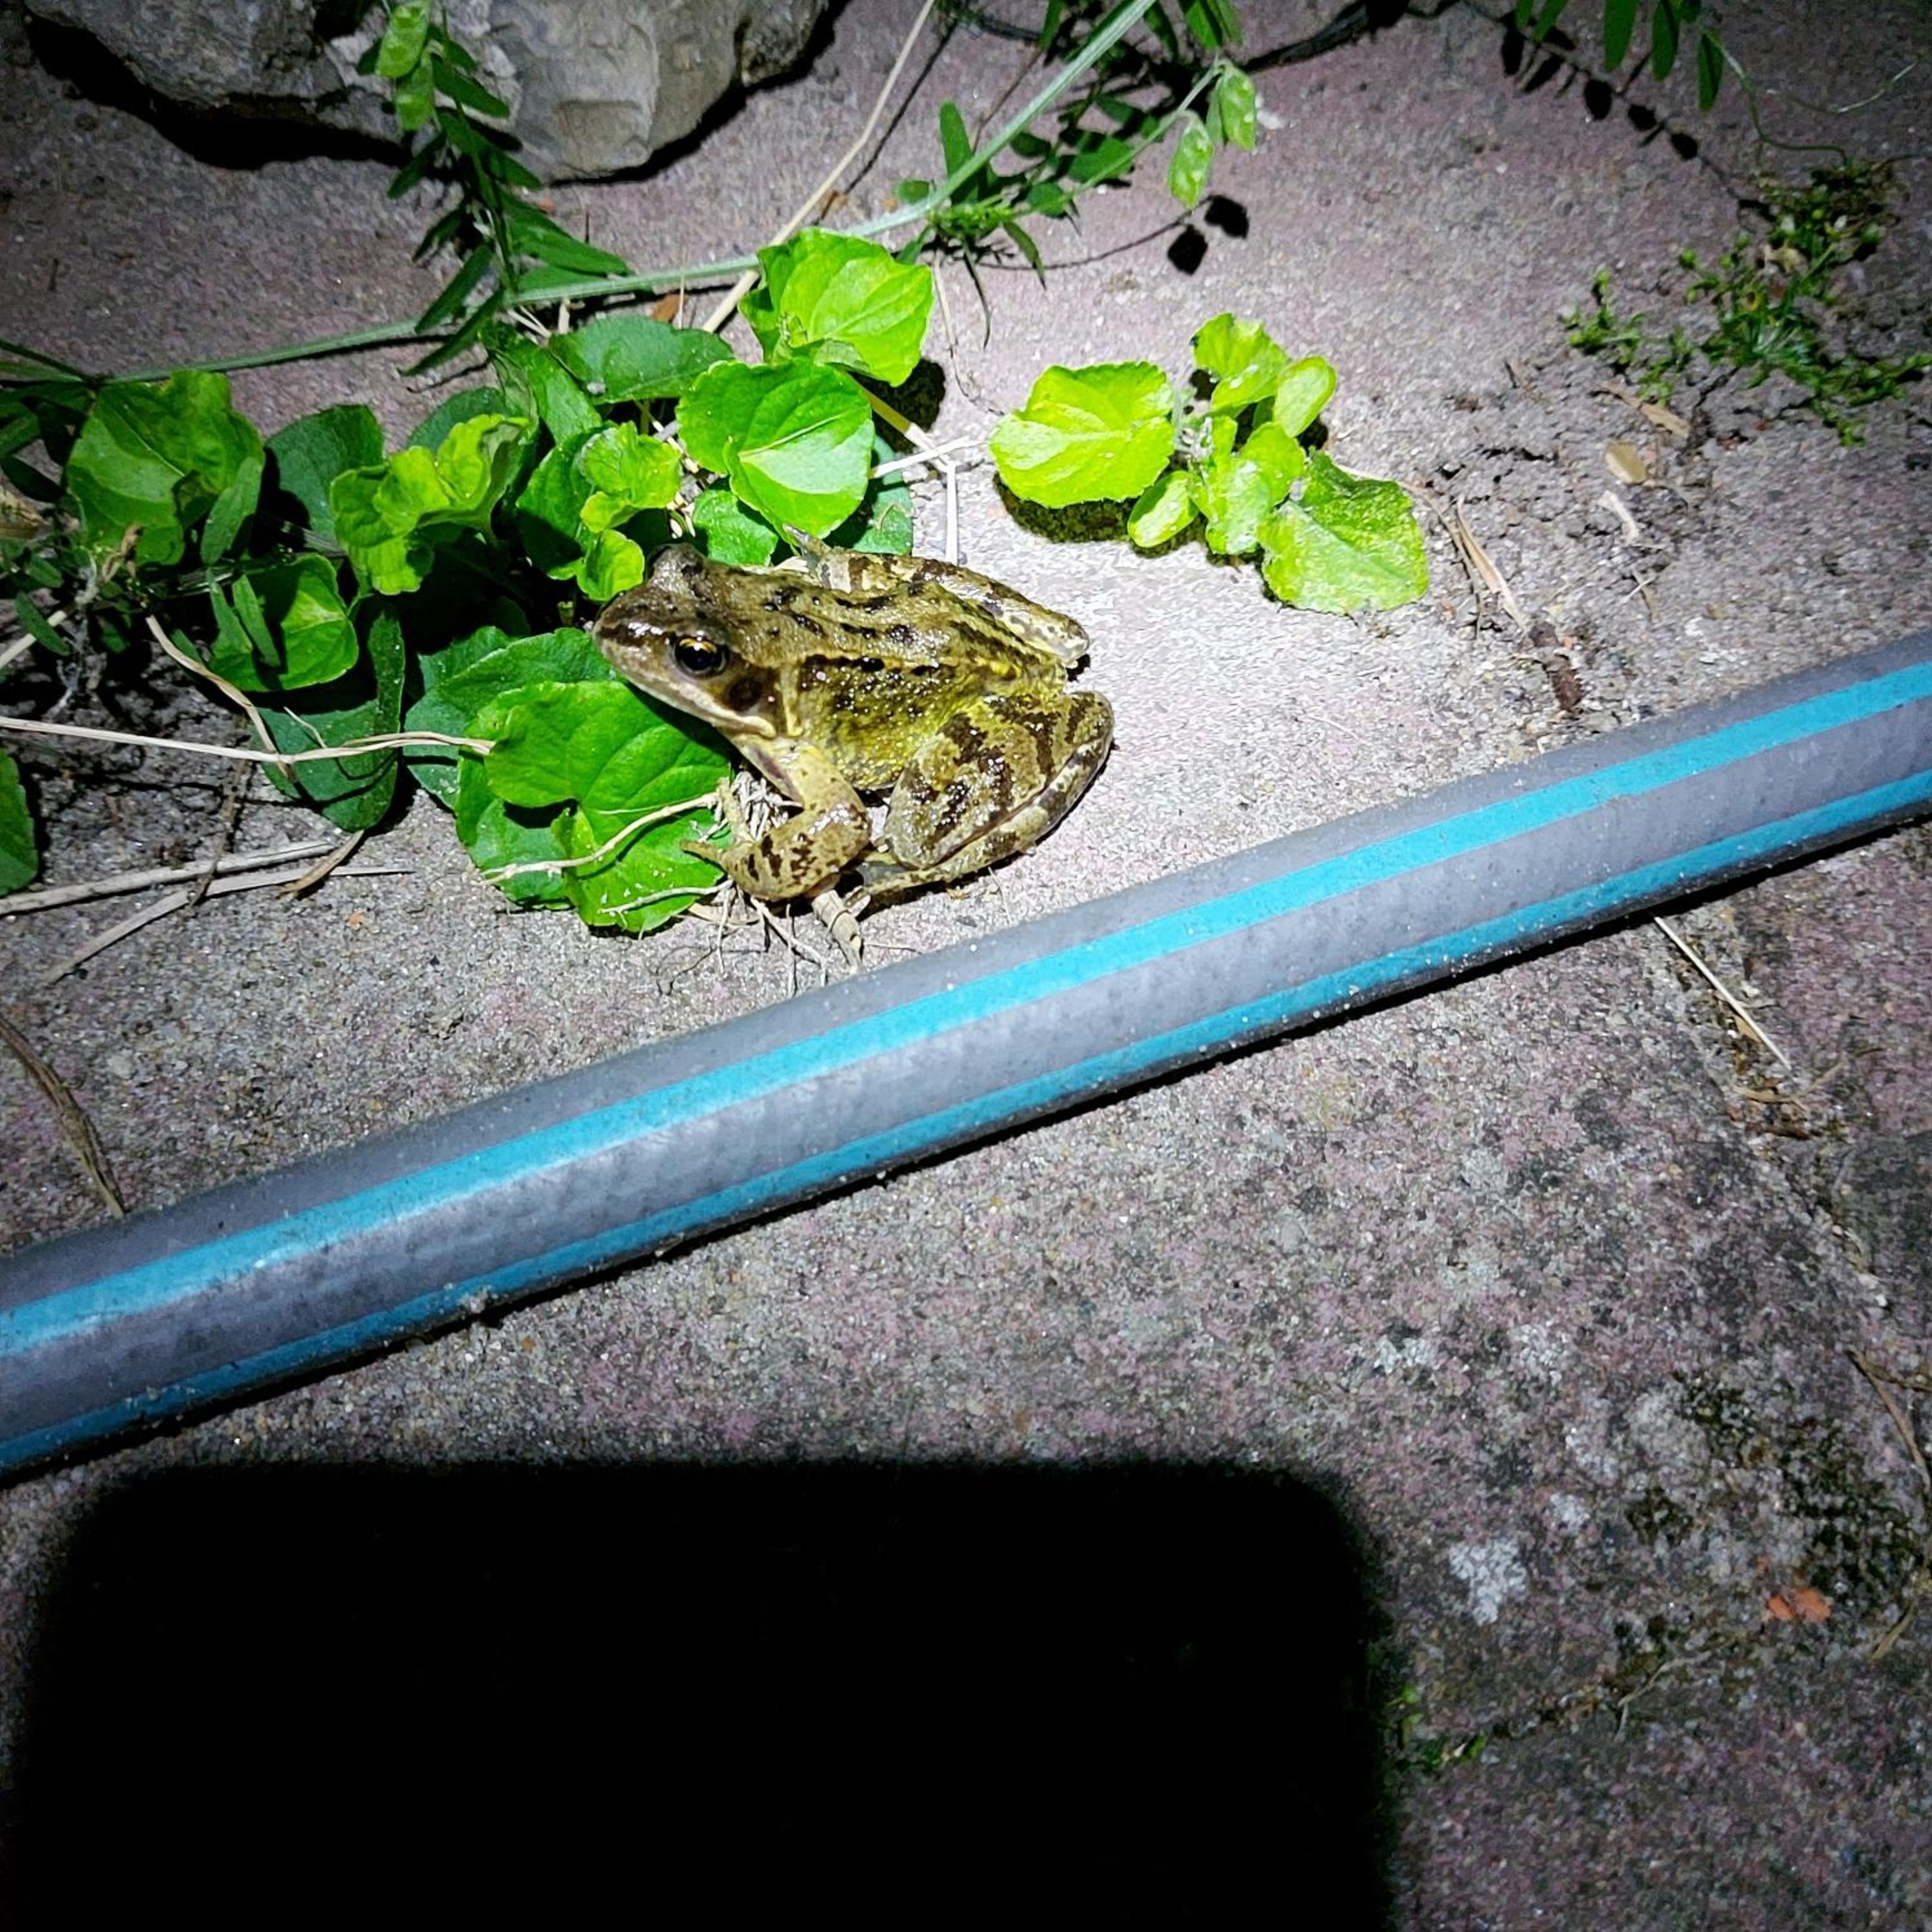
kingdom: Animalia
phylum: Chordata
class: Amphibia
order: Anura
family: Ranidae
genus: Rana
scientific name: Rana temporaria
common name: Butsnudet frø
